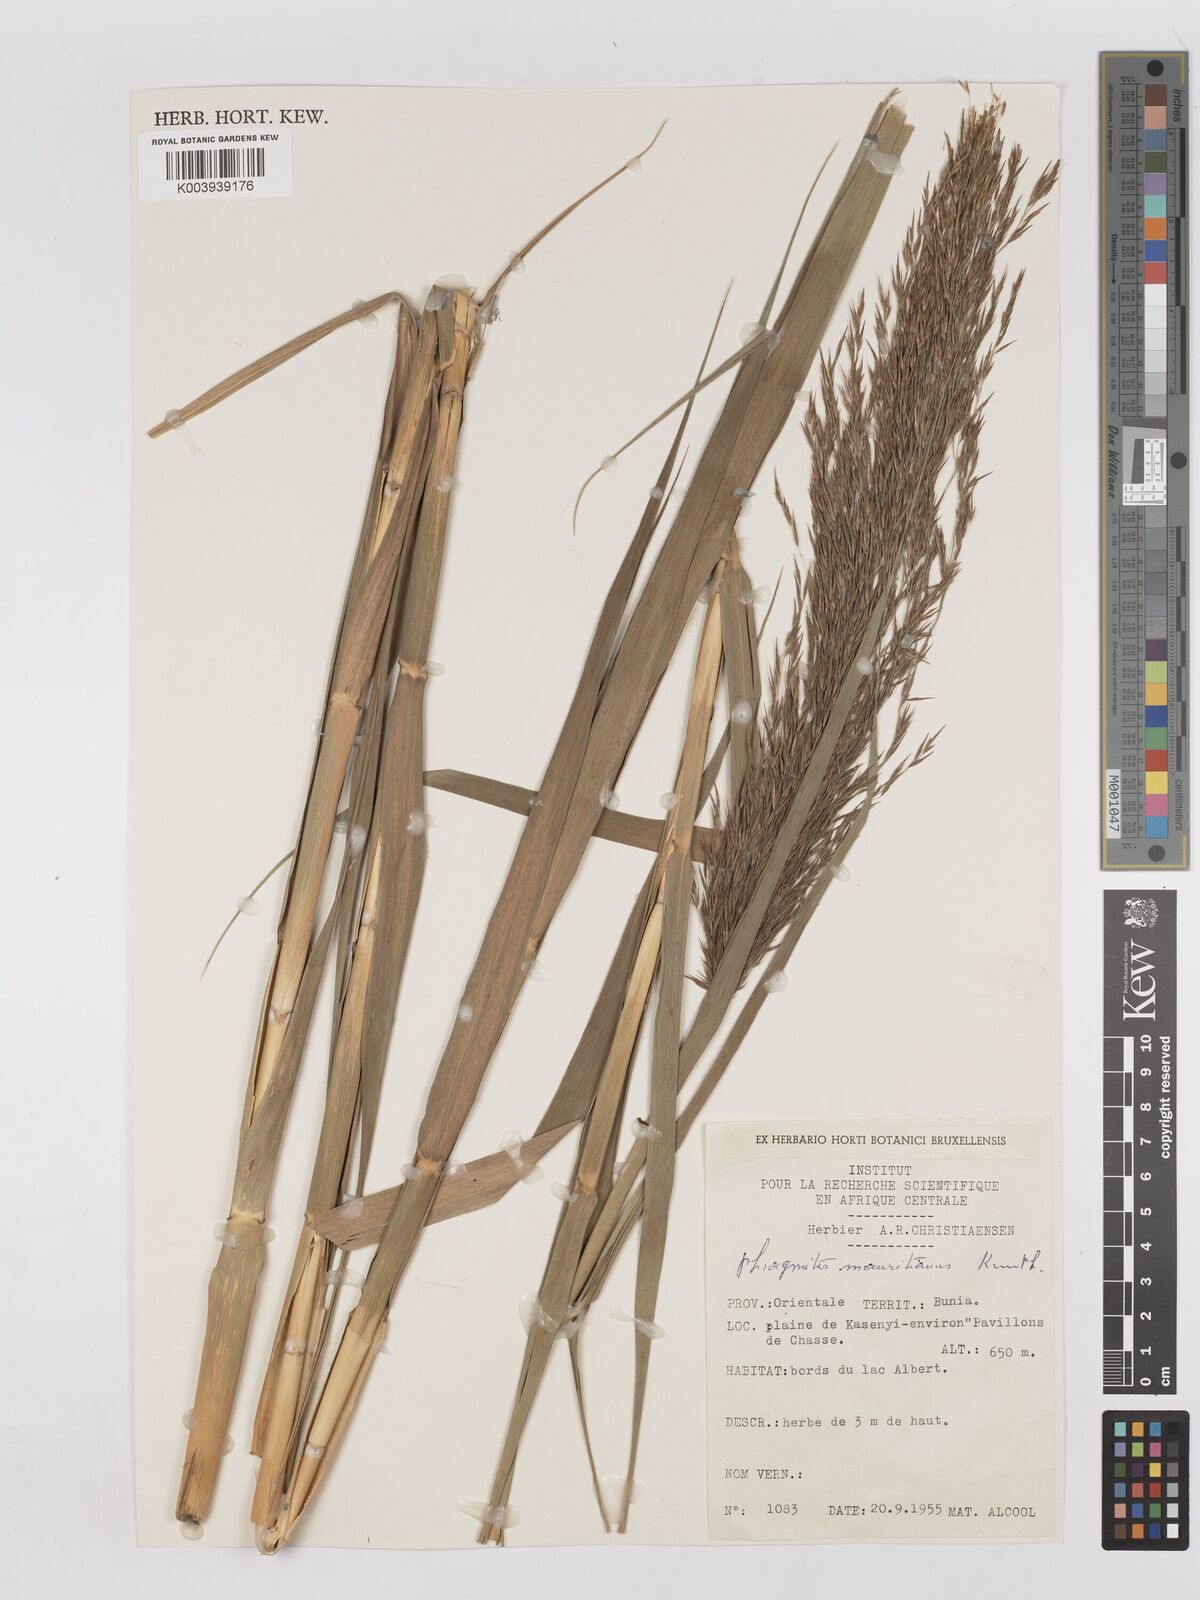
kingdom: Plantae
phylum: Tracheophyta
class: Liliopsida
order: Poales
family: Poaceae
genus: Phragmites
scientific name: Phragmites mauritianus
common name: Reed grass
